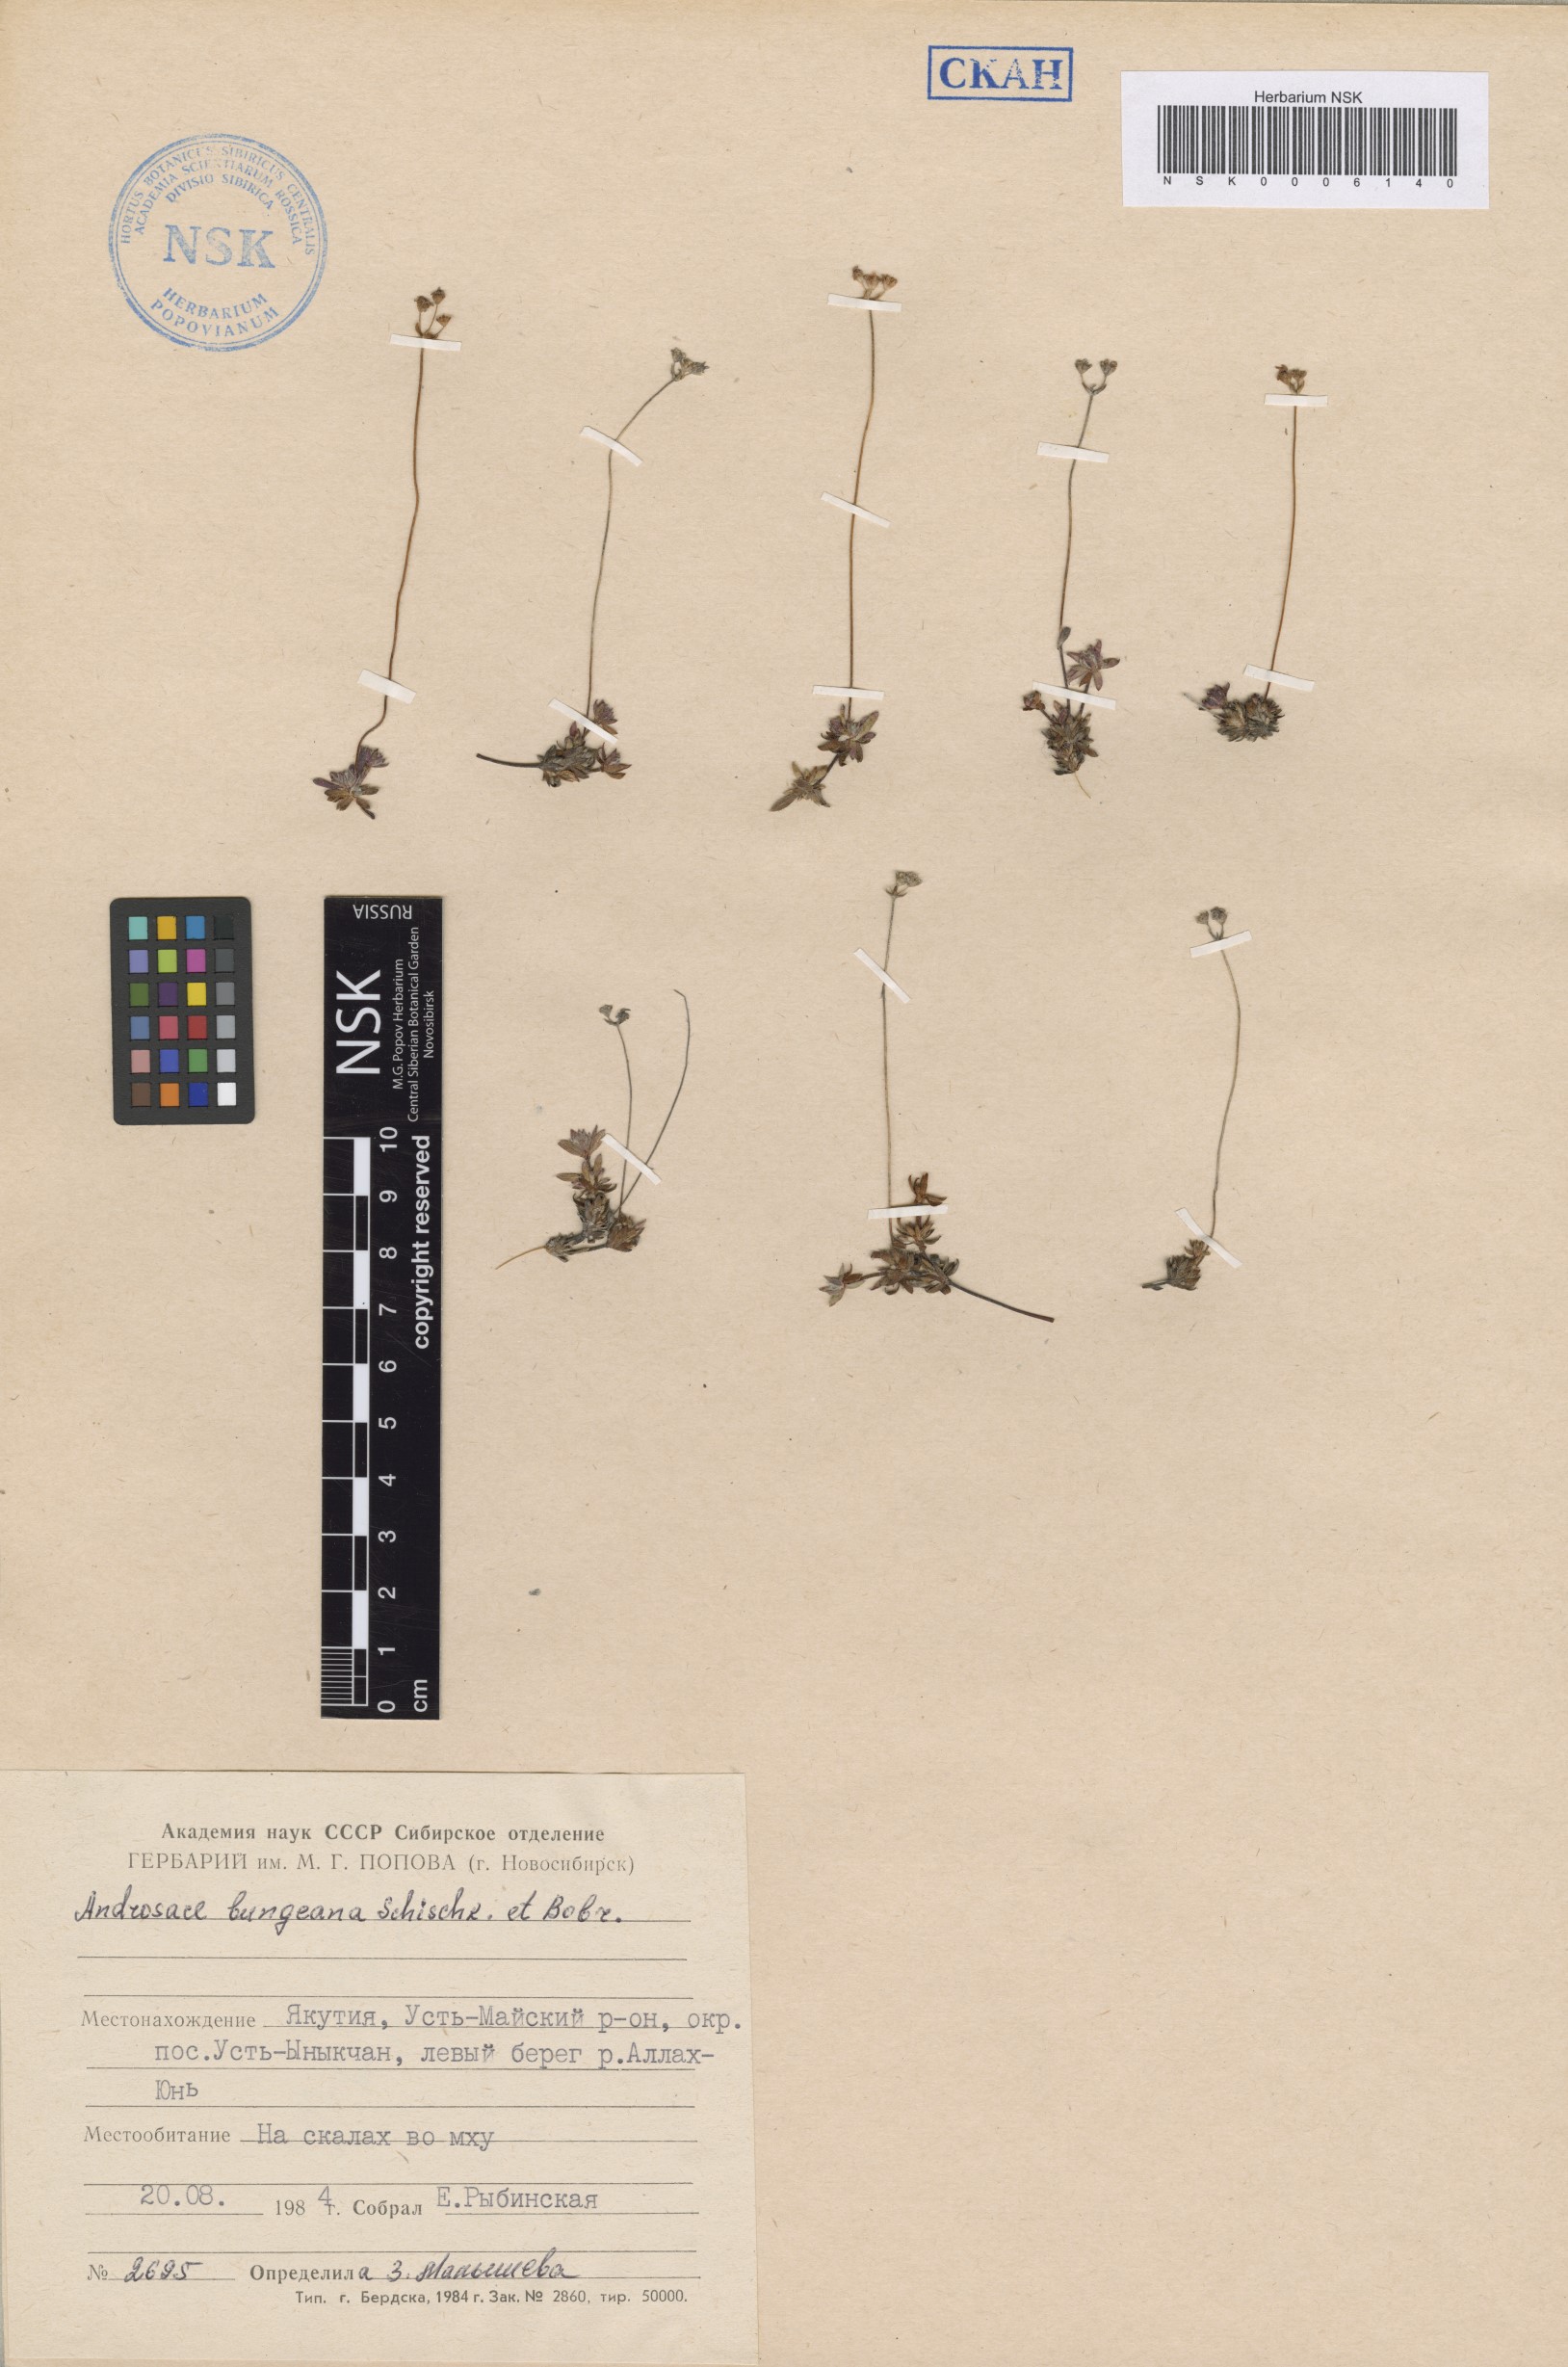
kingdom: Plantae
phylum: Tracheophyta
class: Magnoliopsida
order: Ericales
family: Primulaceae
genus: Androsace
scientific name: Androsace bungeana
